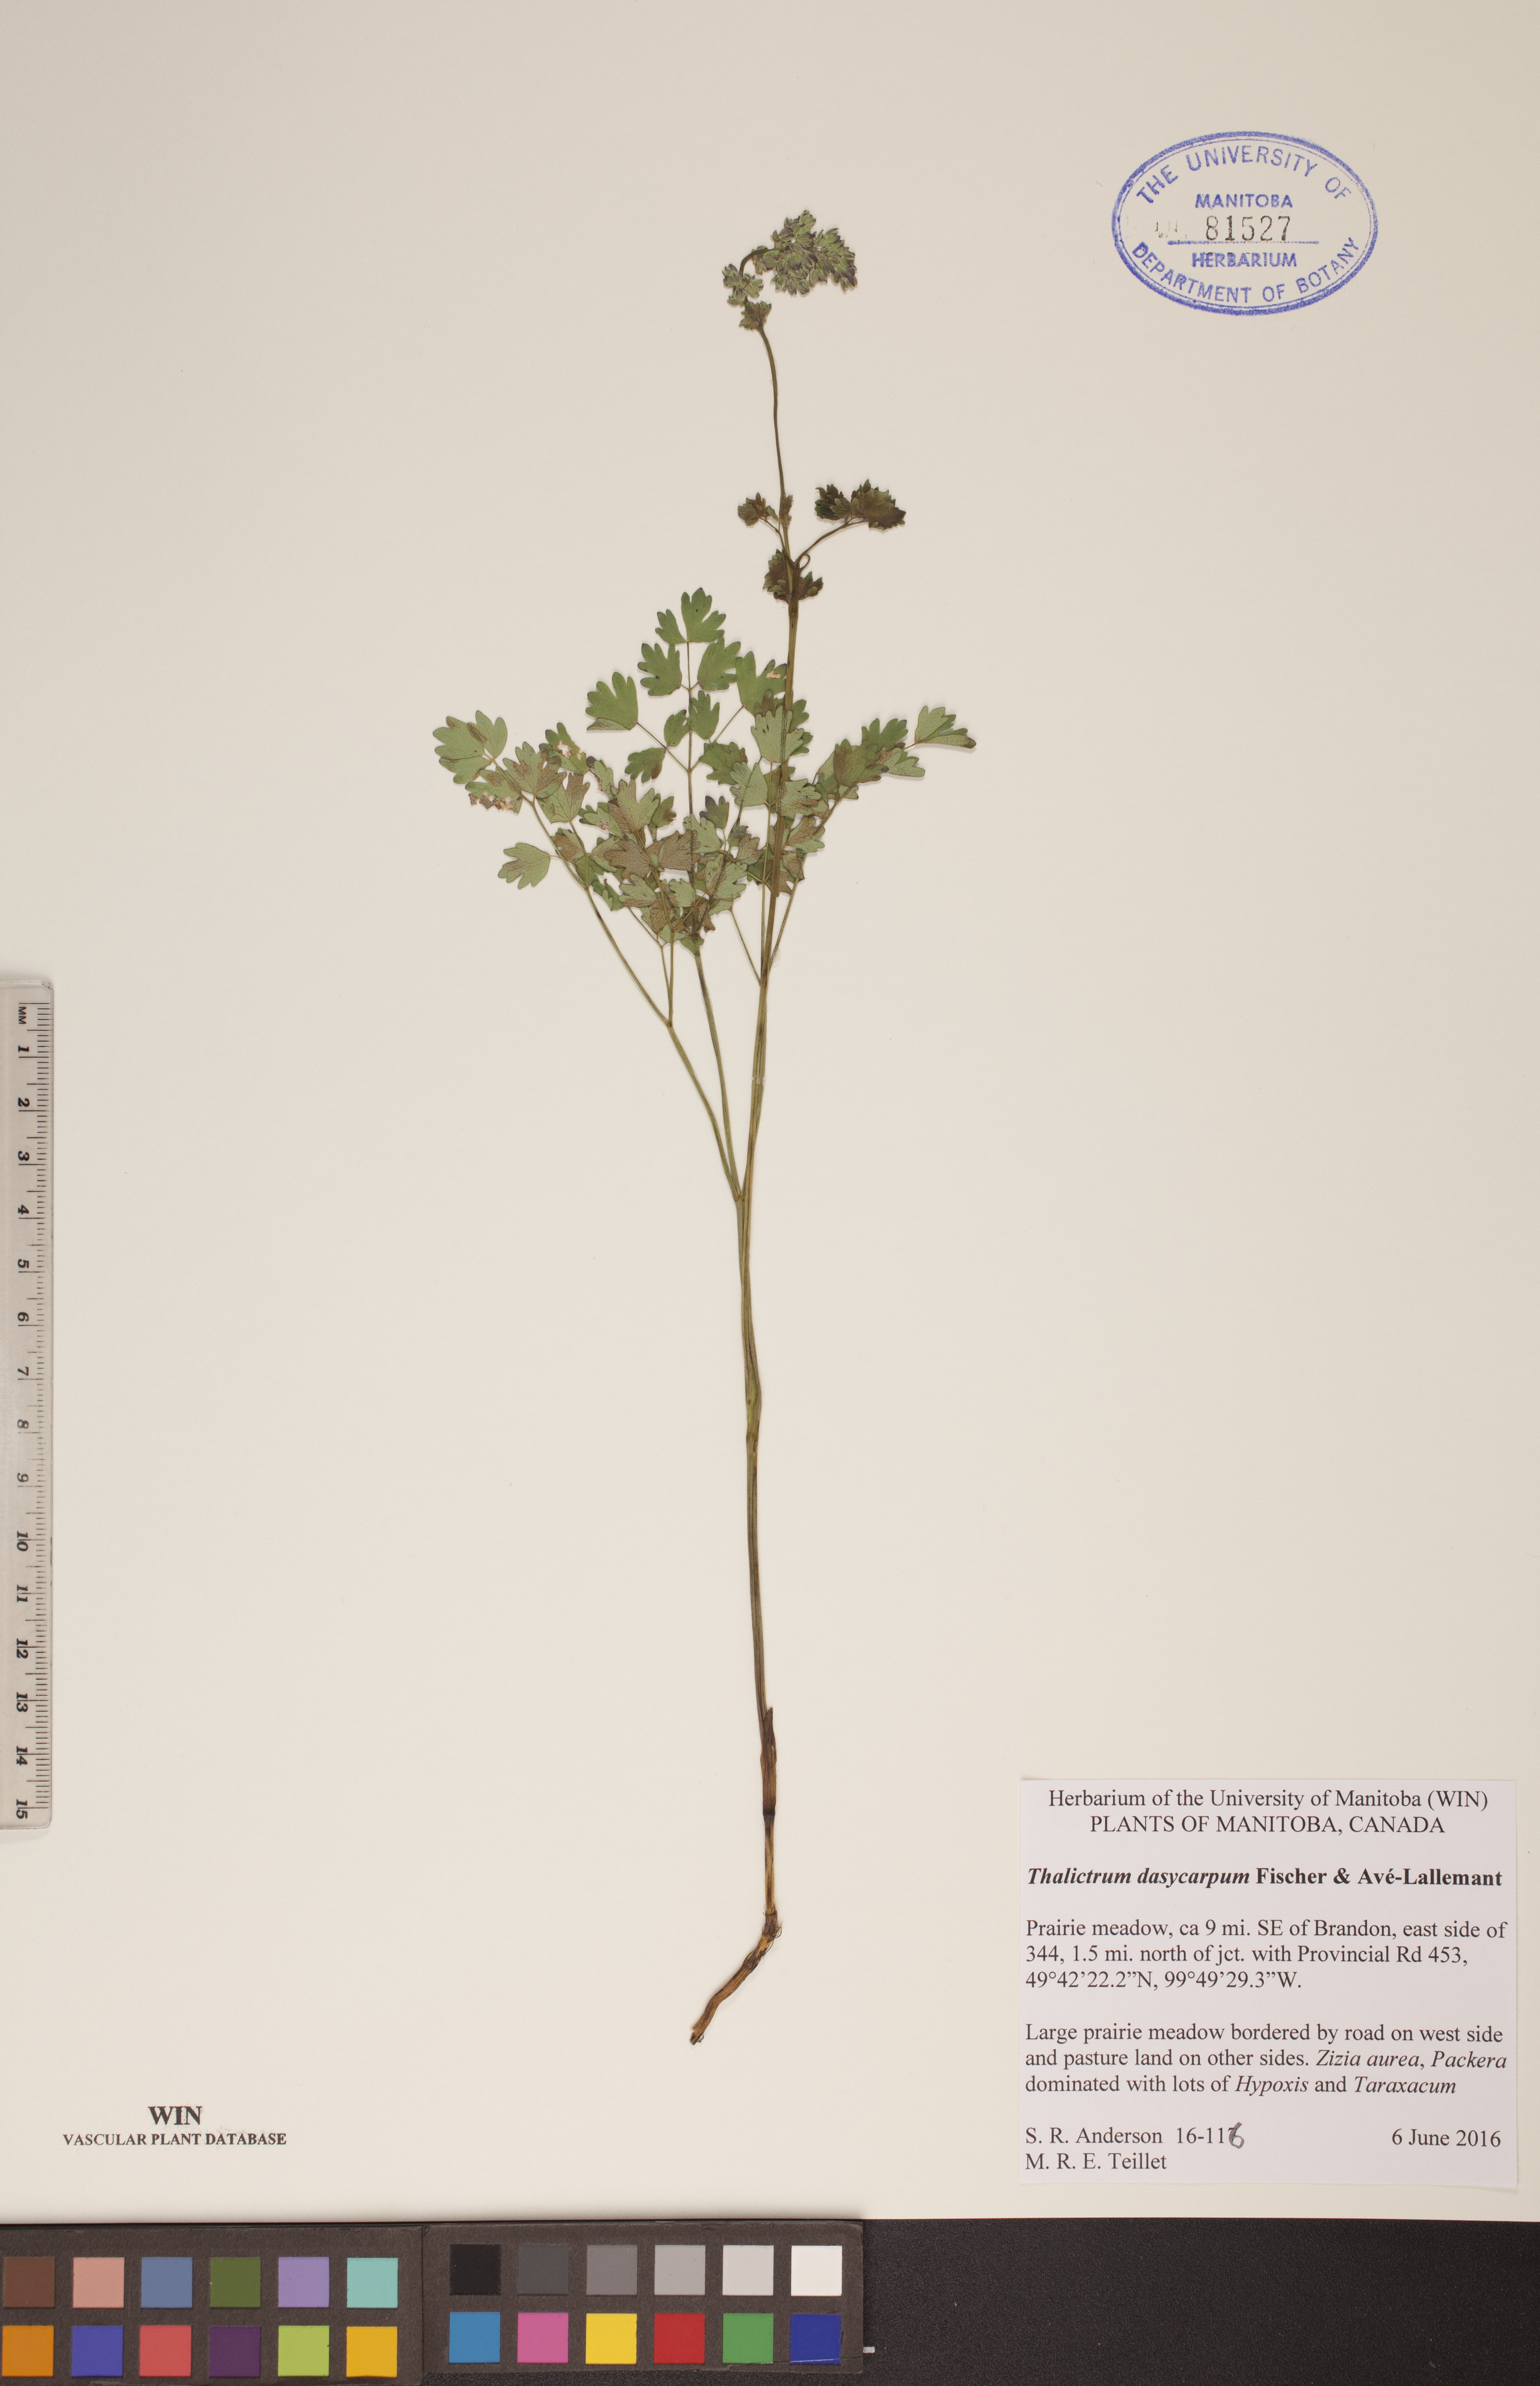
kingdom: Plantae
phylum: Tracheophyta
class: Magnoliopsida
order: Ranunculales
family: Ranunculaceae
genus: Thalictrum
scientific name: Thalictrum dasycarpum
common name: Purple meadow-rue
